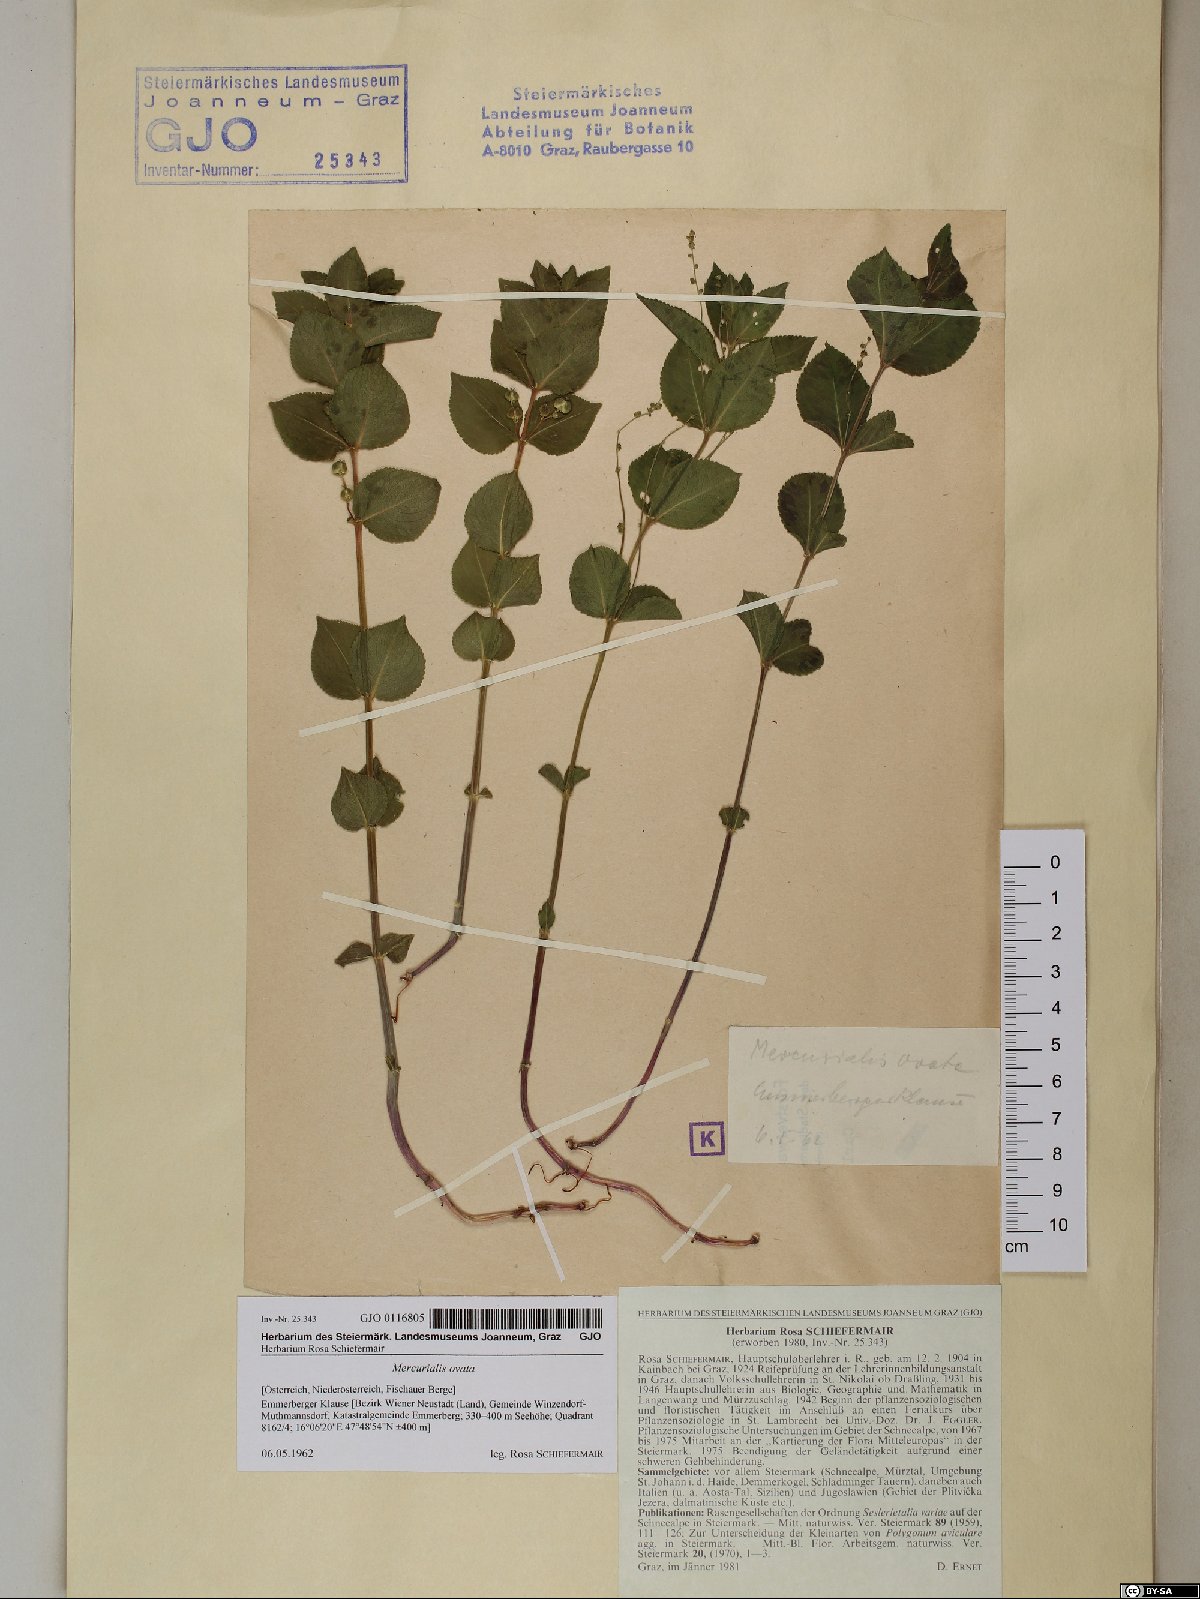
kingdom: Plantae
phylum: Tracheophyta
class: Magnoliopsida
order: Malpighiales
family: Euphorbiaceae
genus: Mercurialis
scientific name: Mercurialis ovata
